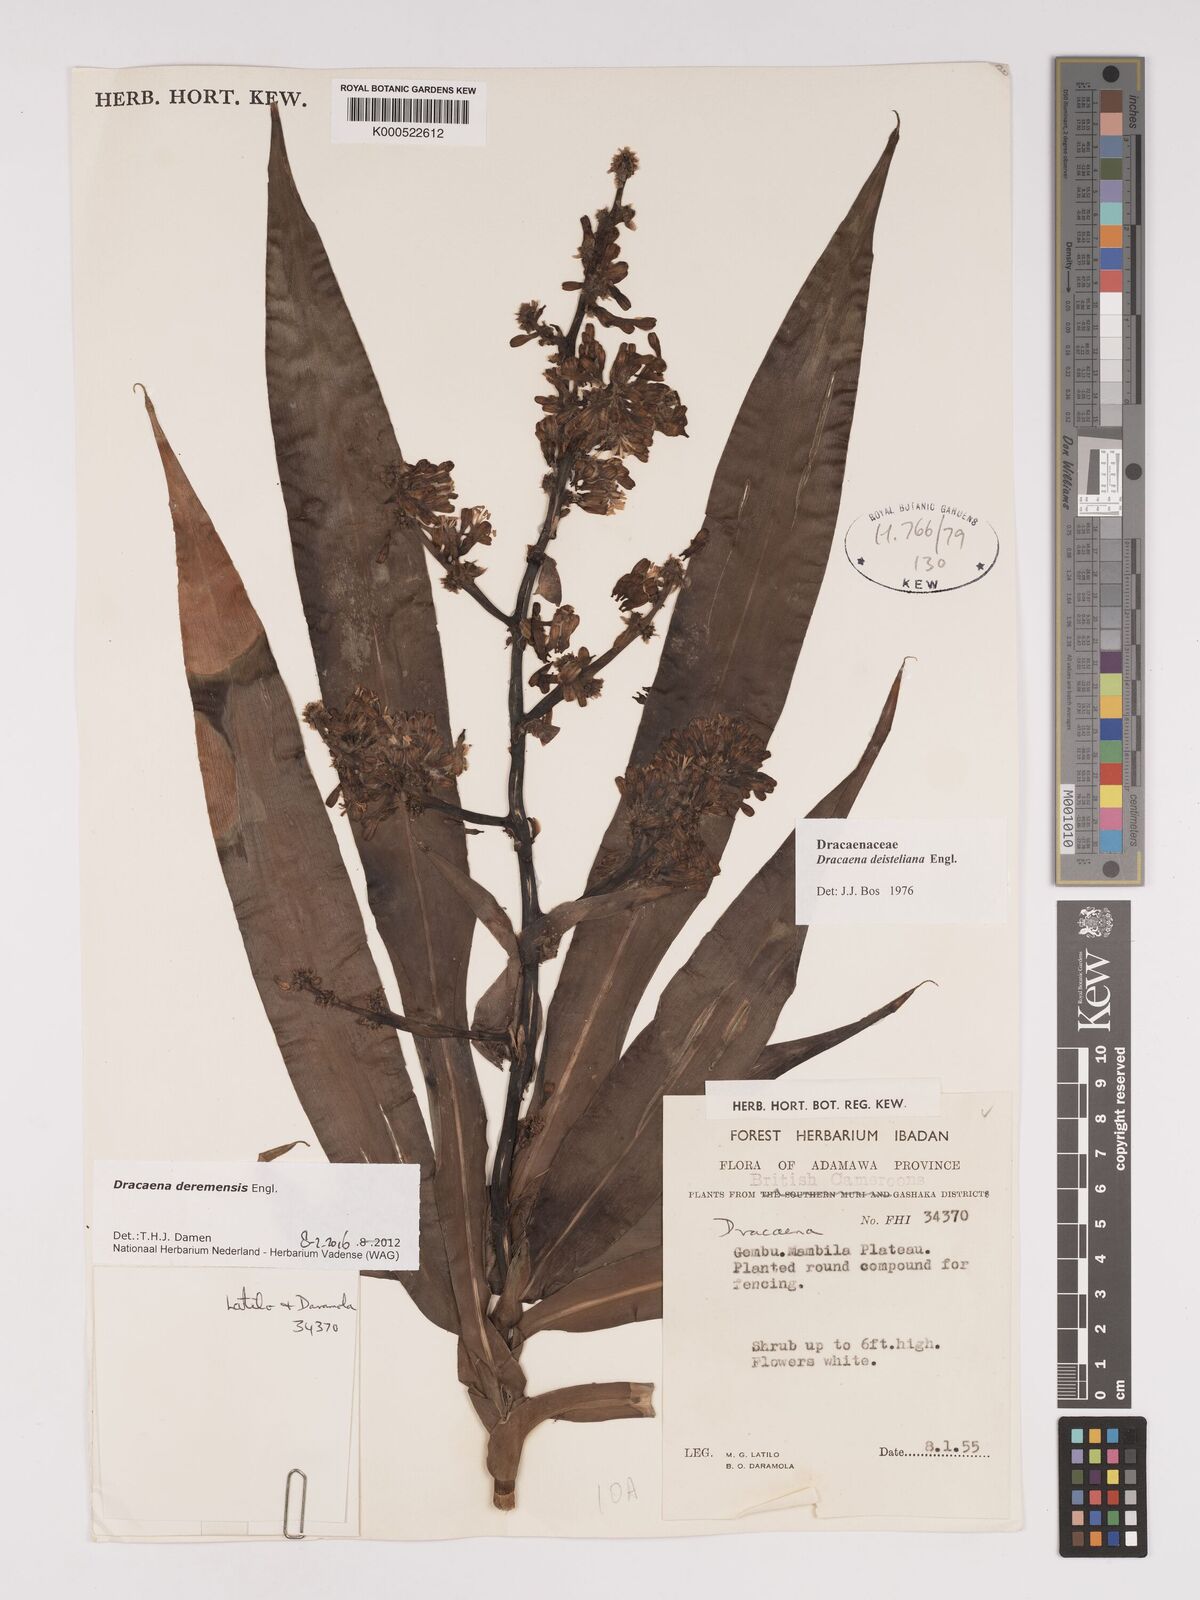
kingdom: Plantae
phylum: Tracheophyta
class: Liliopsida
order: Asparagales
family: Asparagaceae
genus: Dracaena
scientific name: Dracaena fragrans
